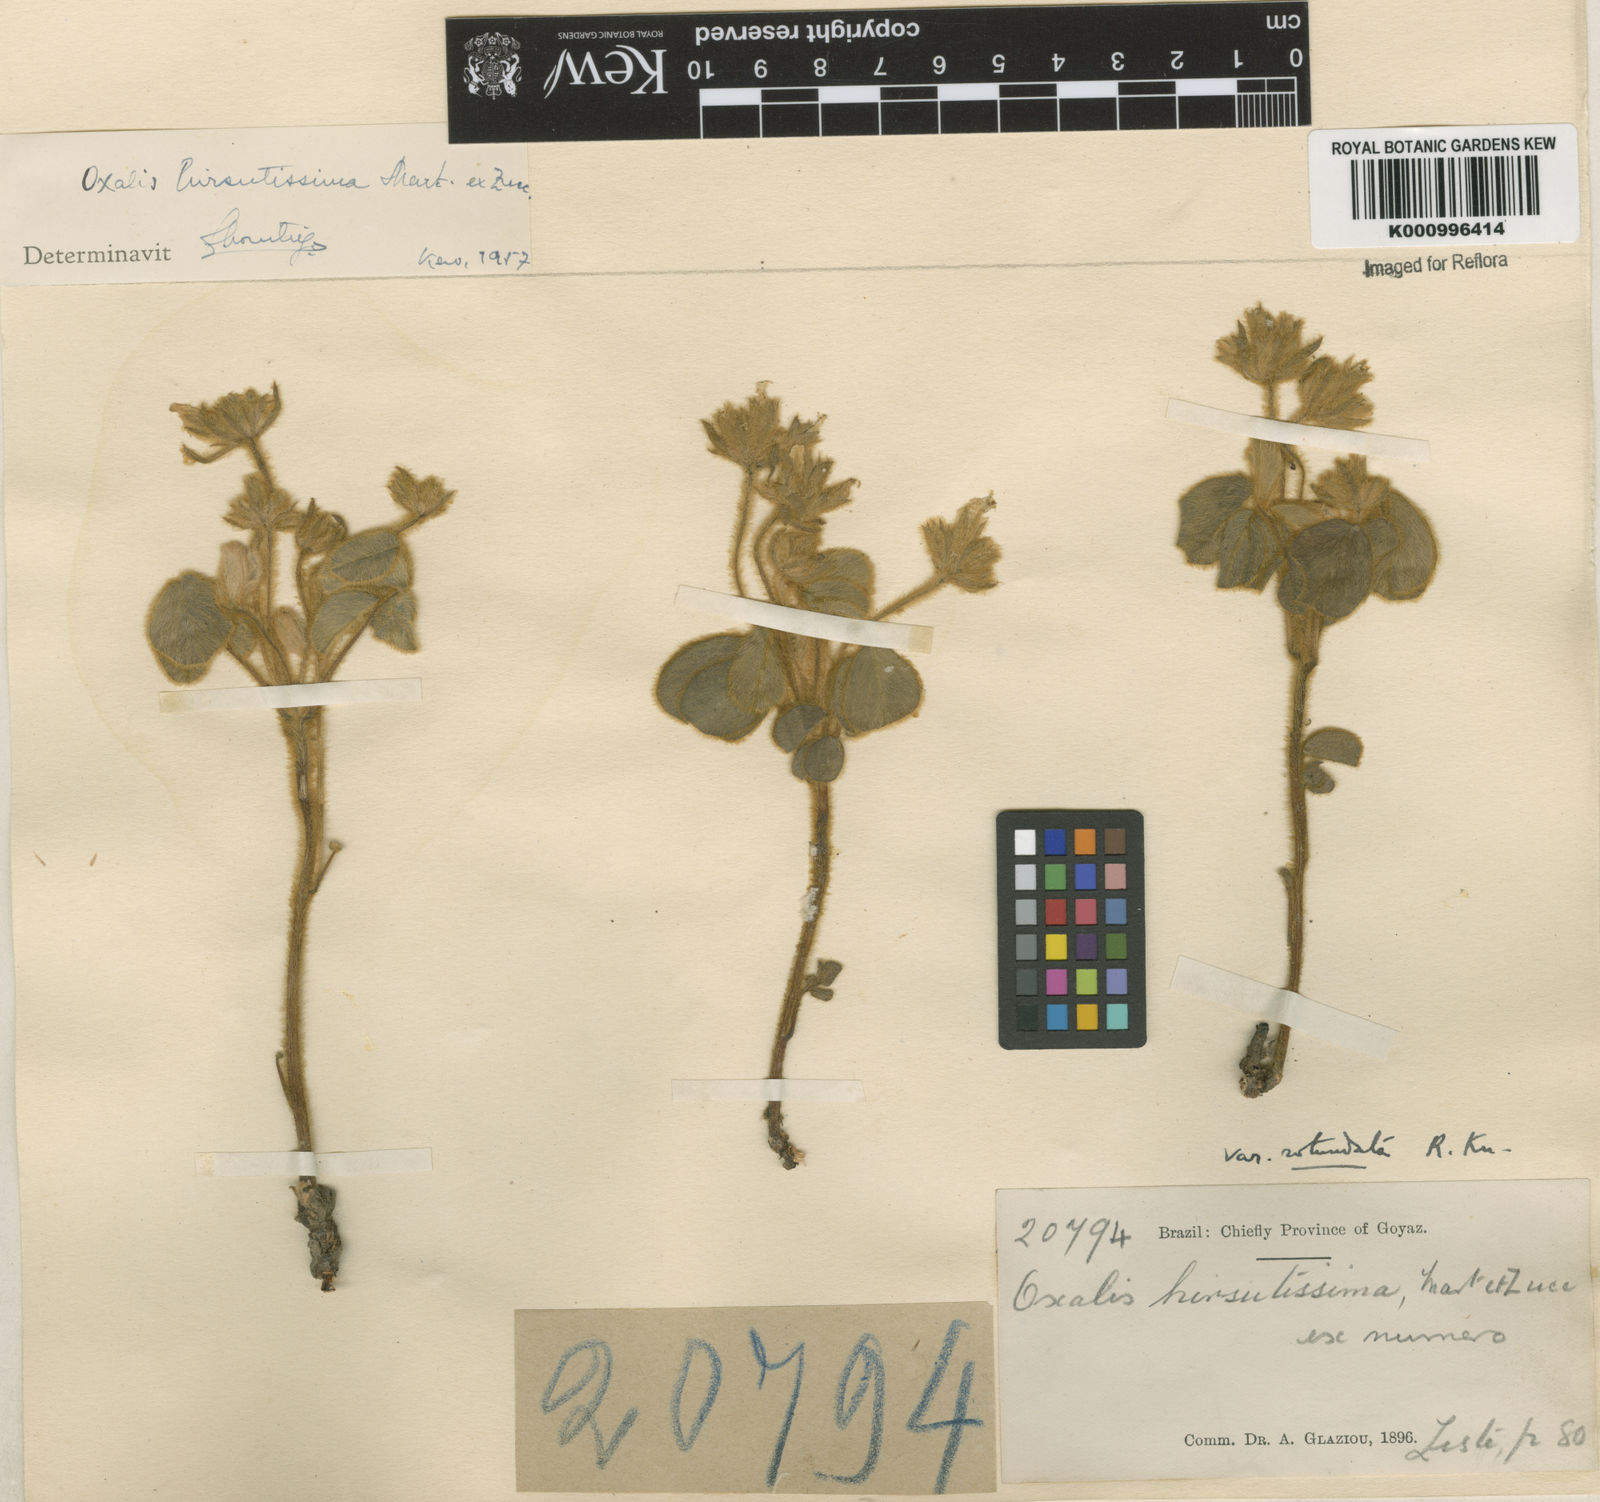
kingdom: Plantae
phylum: Tracheophyta
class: Magnoliopsida
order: Oxalidales
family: Oxalidaceae
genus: Oxalis
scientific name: Oxalis hirsutissima
